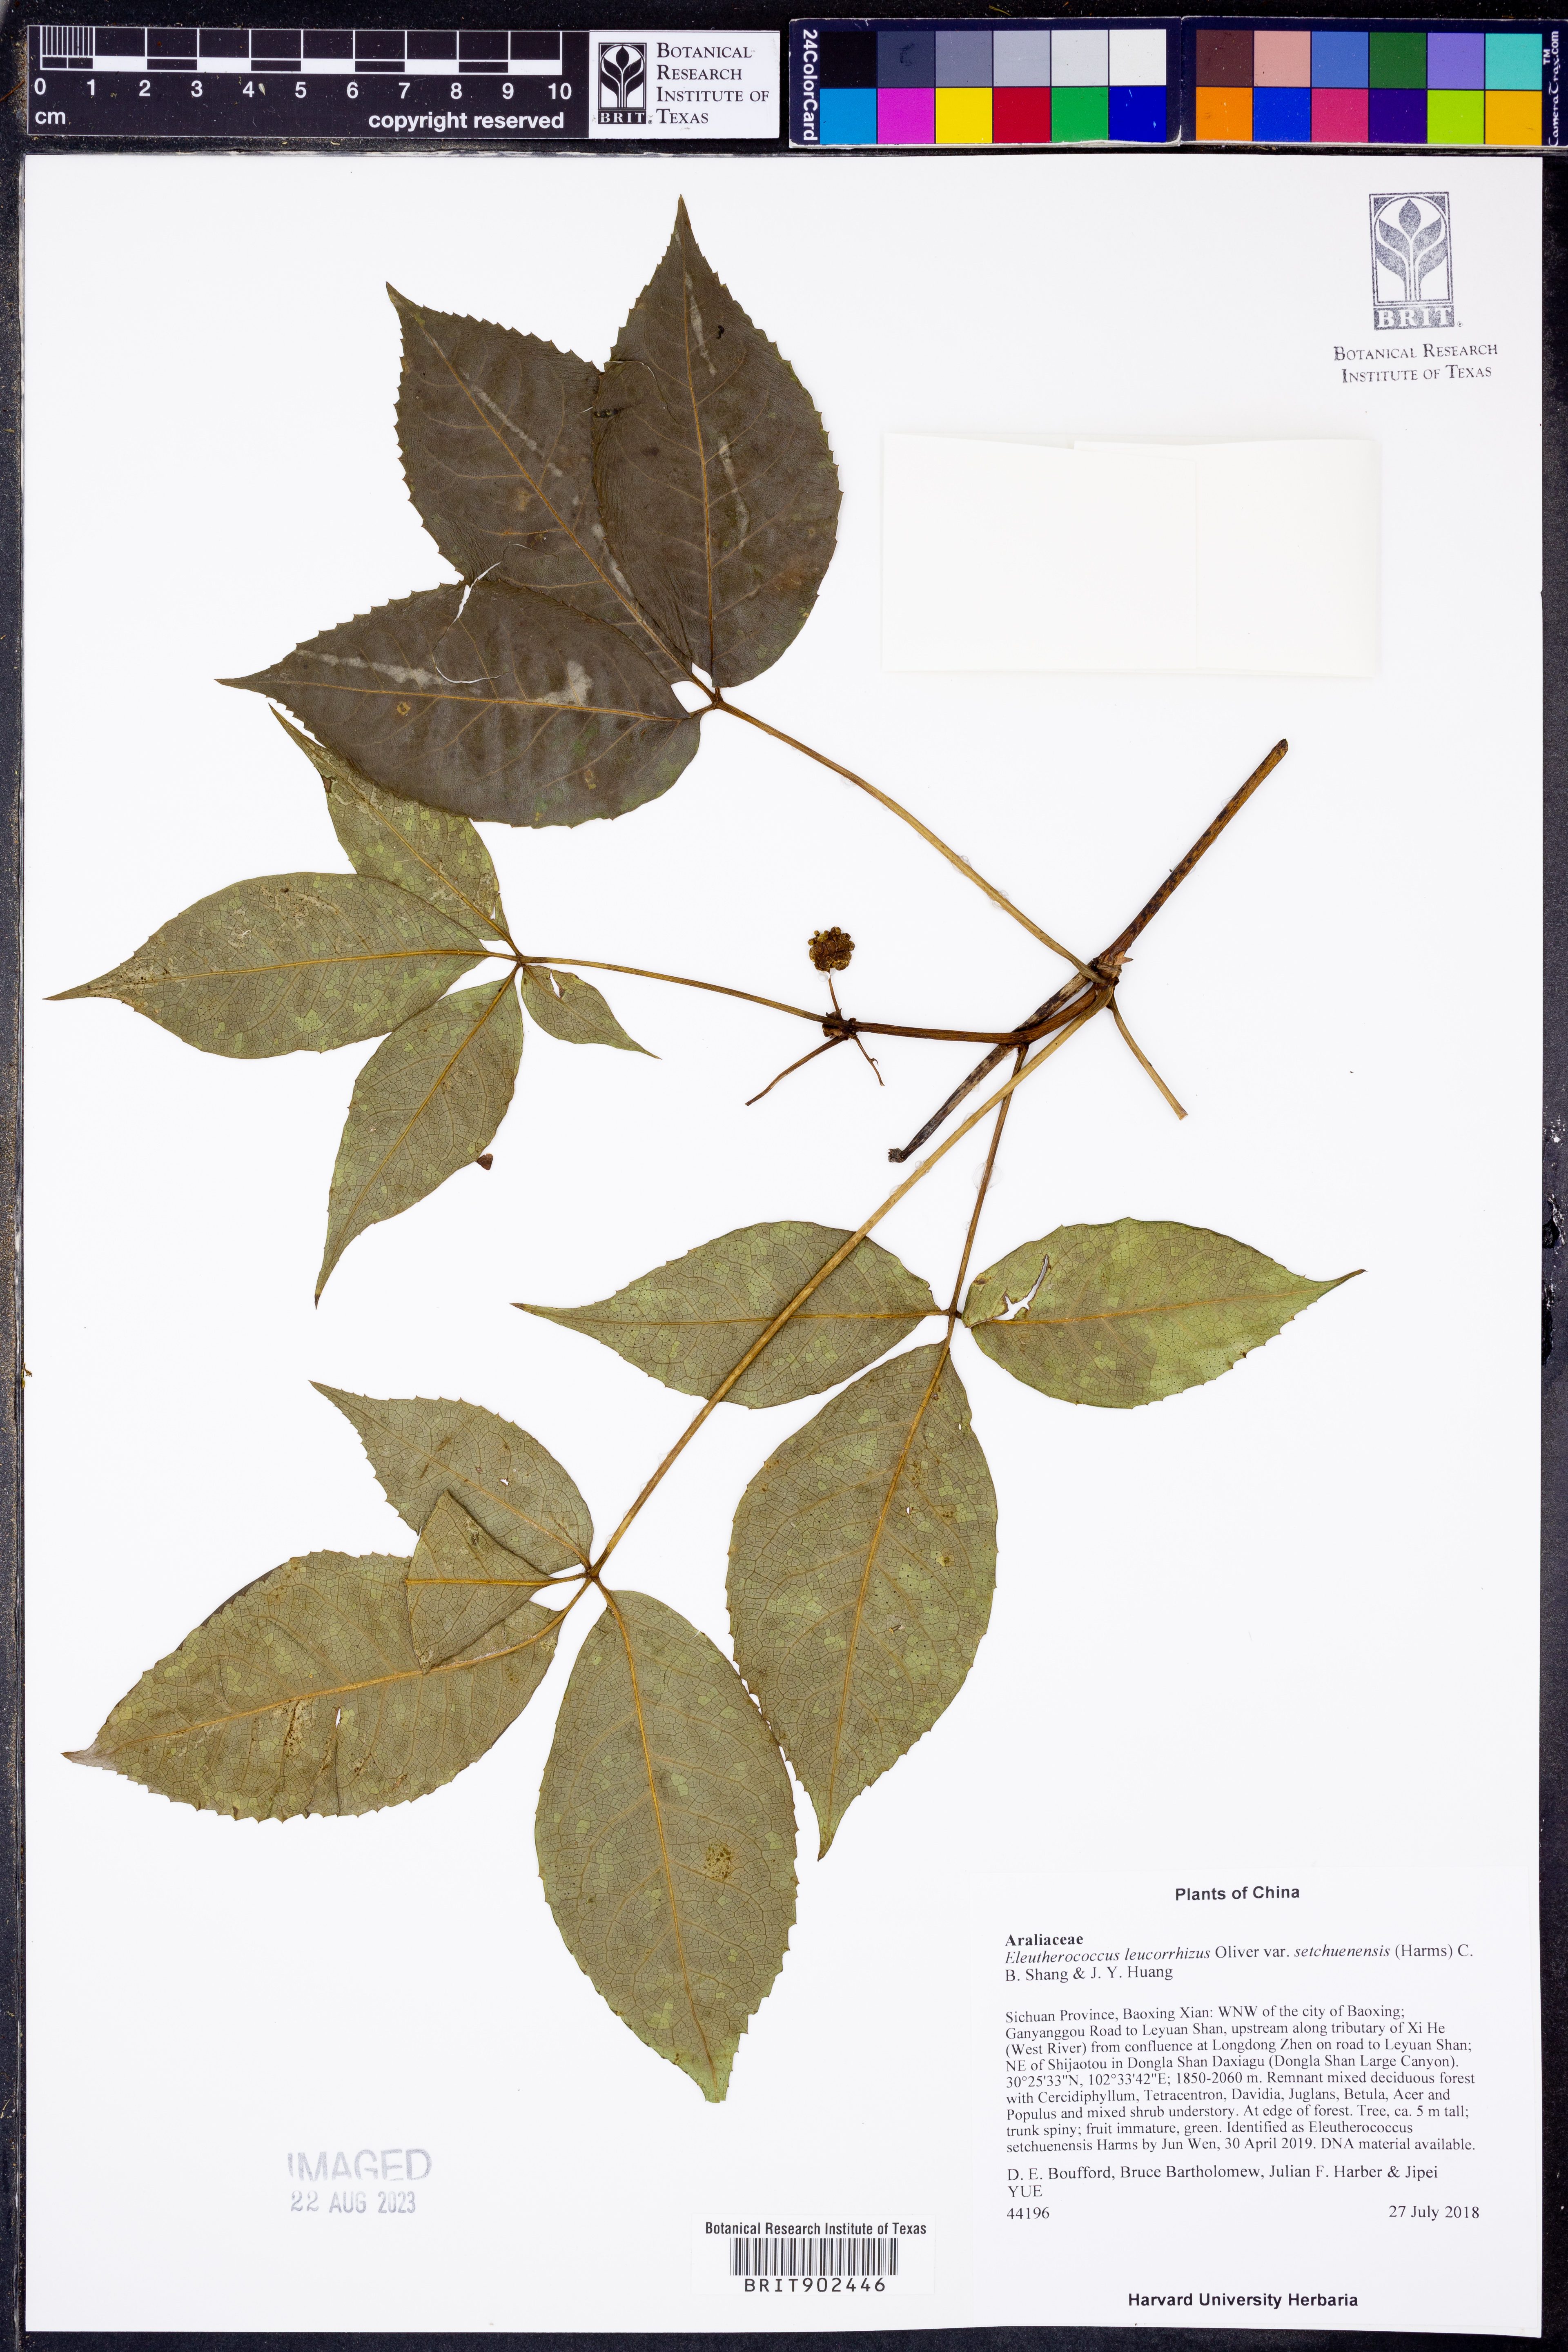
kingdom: Plantae
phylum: Tracheophyta
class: Magnoliopsida
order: Apiales
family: Araliaceae
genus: Eleutherococcus
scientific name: Eleutherococcus leucorrhizus
